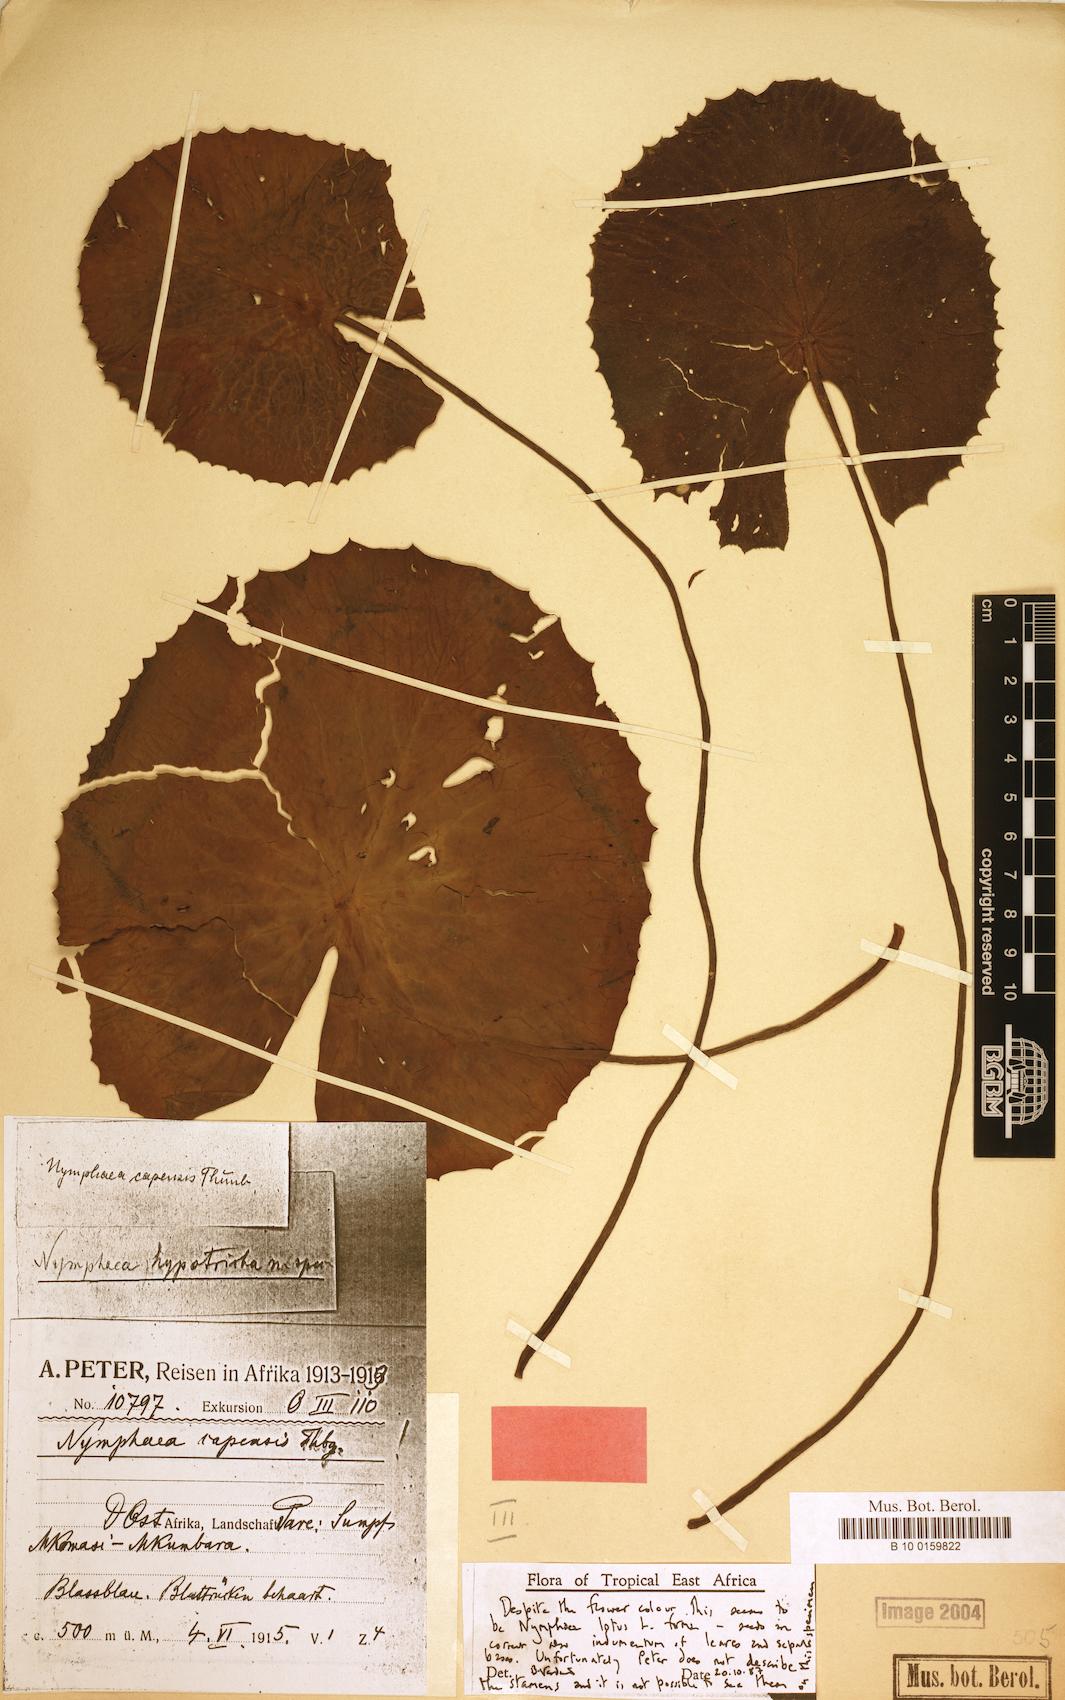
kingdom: Plantae
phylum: Tracheophyta
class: Magnoliopsida
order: Nymphaeales
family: Nymphaeaceae
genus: Nymphaea
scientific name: Nymphaea lotus
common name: White egyptian lotus
